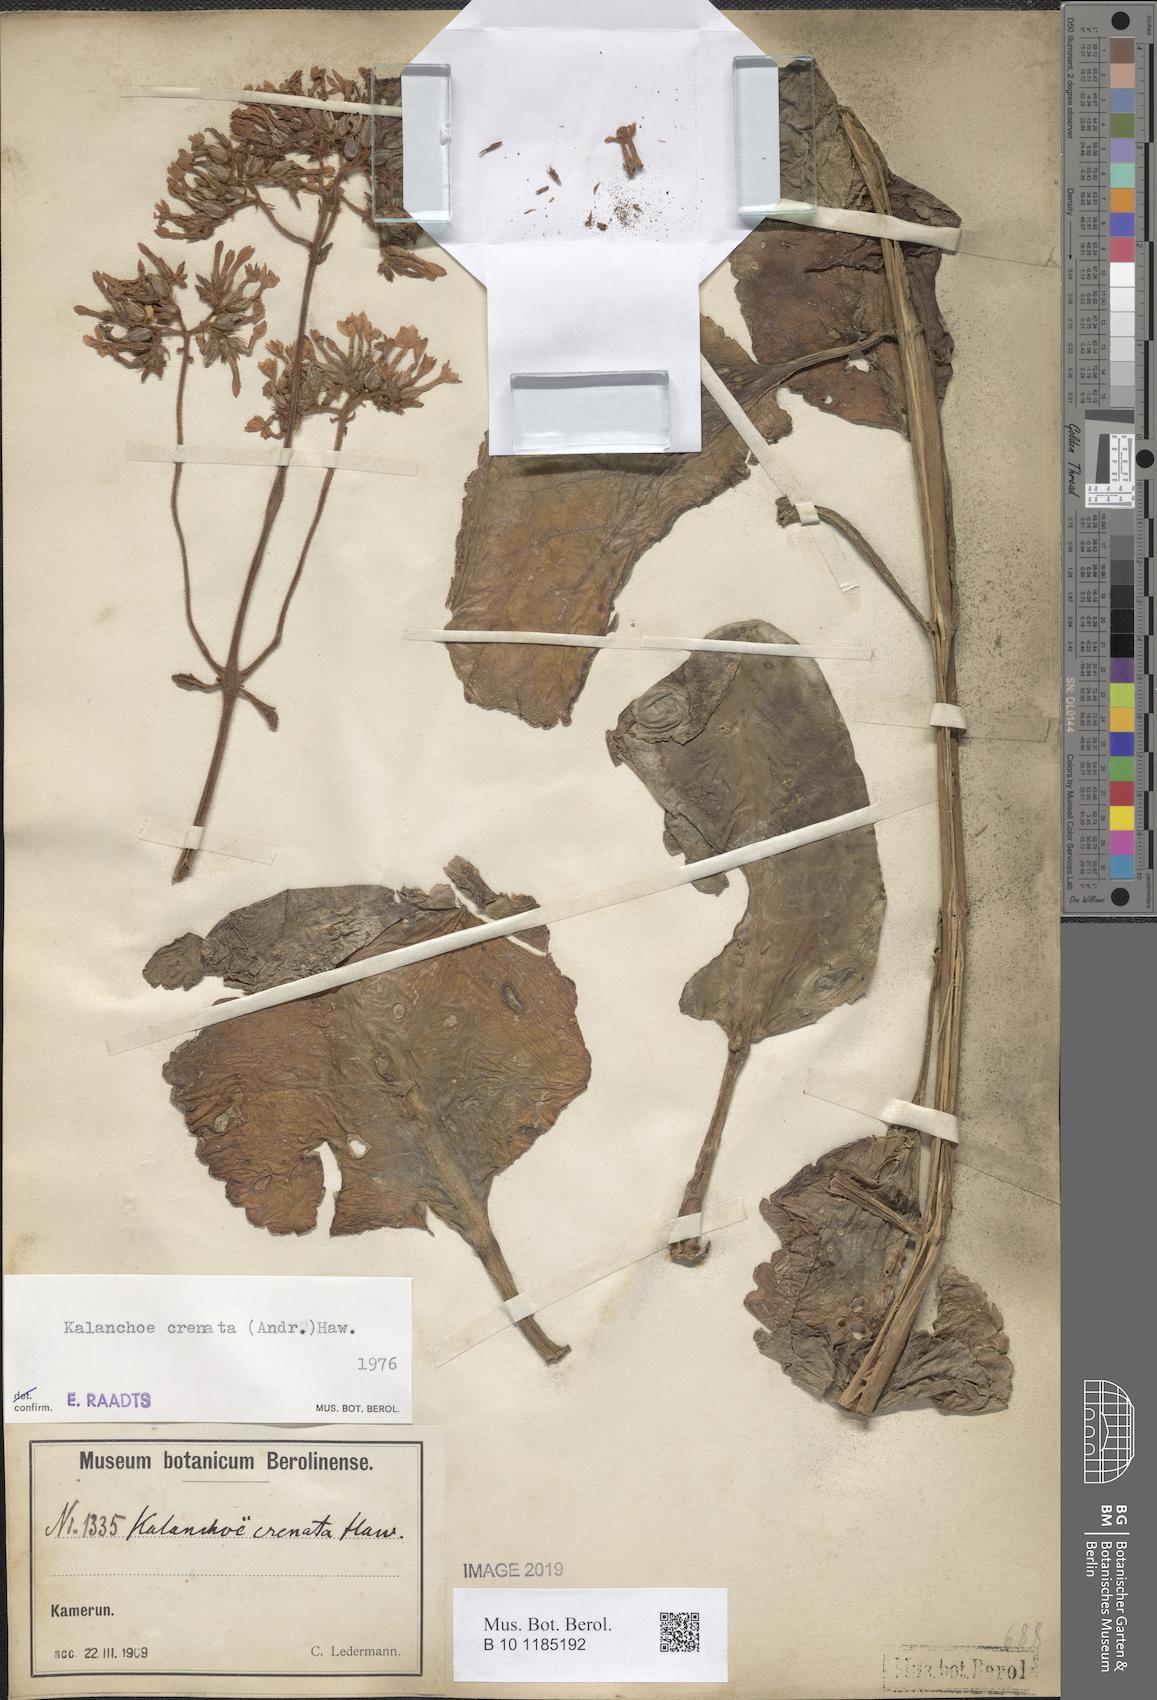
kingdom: Plantae
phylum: Tracheophyta
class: Magnoliopsida
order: Saxifragales
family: Crassulaceae
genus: Kalanchoe
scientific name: Kalanchoe crenata
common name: Neverdie
